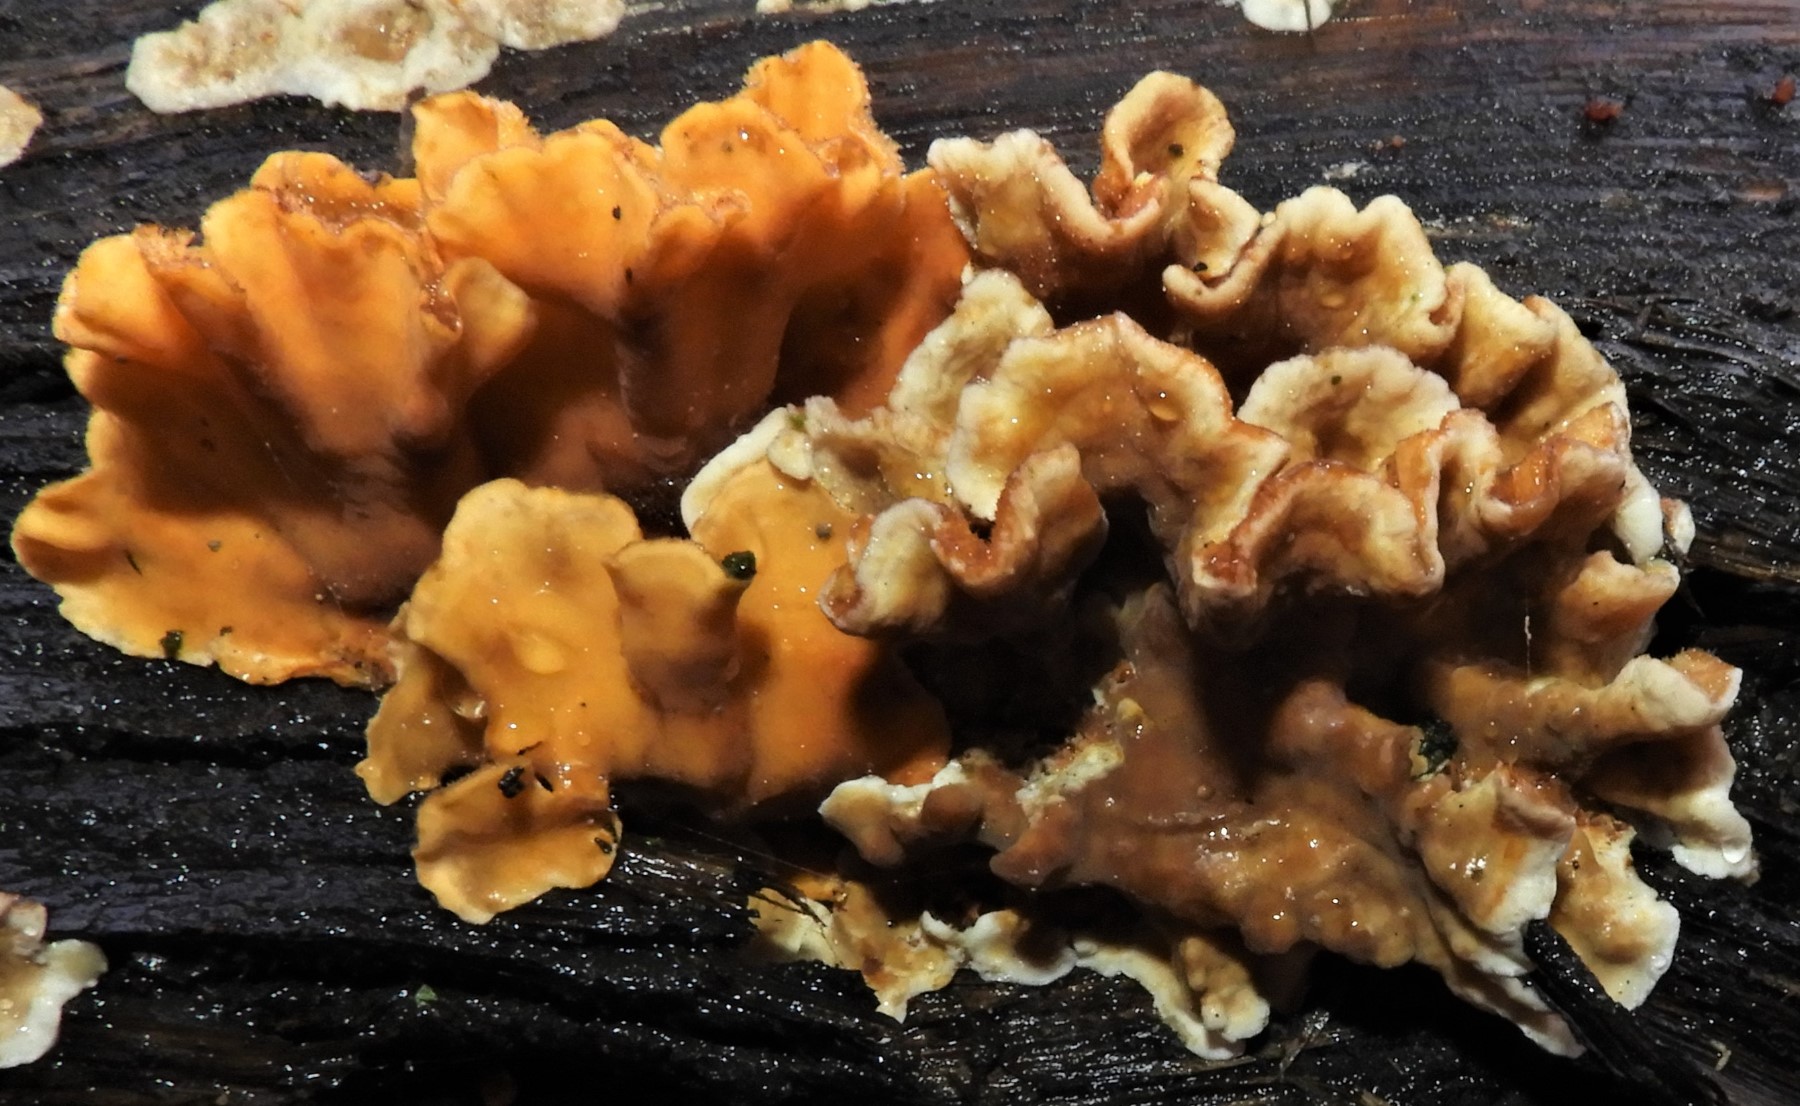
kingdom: Fungi
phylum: Basidiomycota
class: Agaricomycetes
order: Russulales
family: Stereaceae
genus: Stereum
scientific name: Stereum hirsutum
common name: håret lædersvamp
